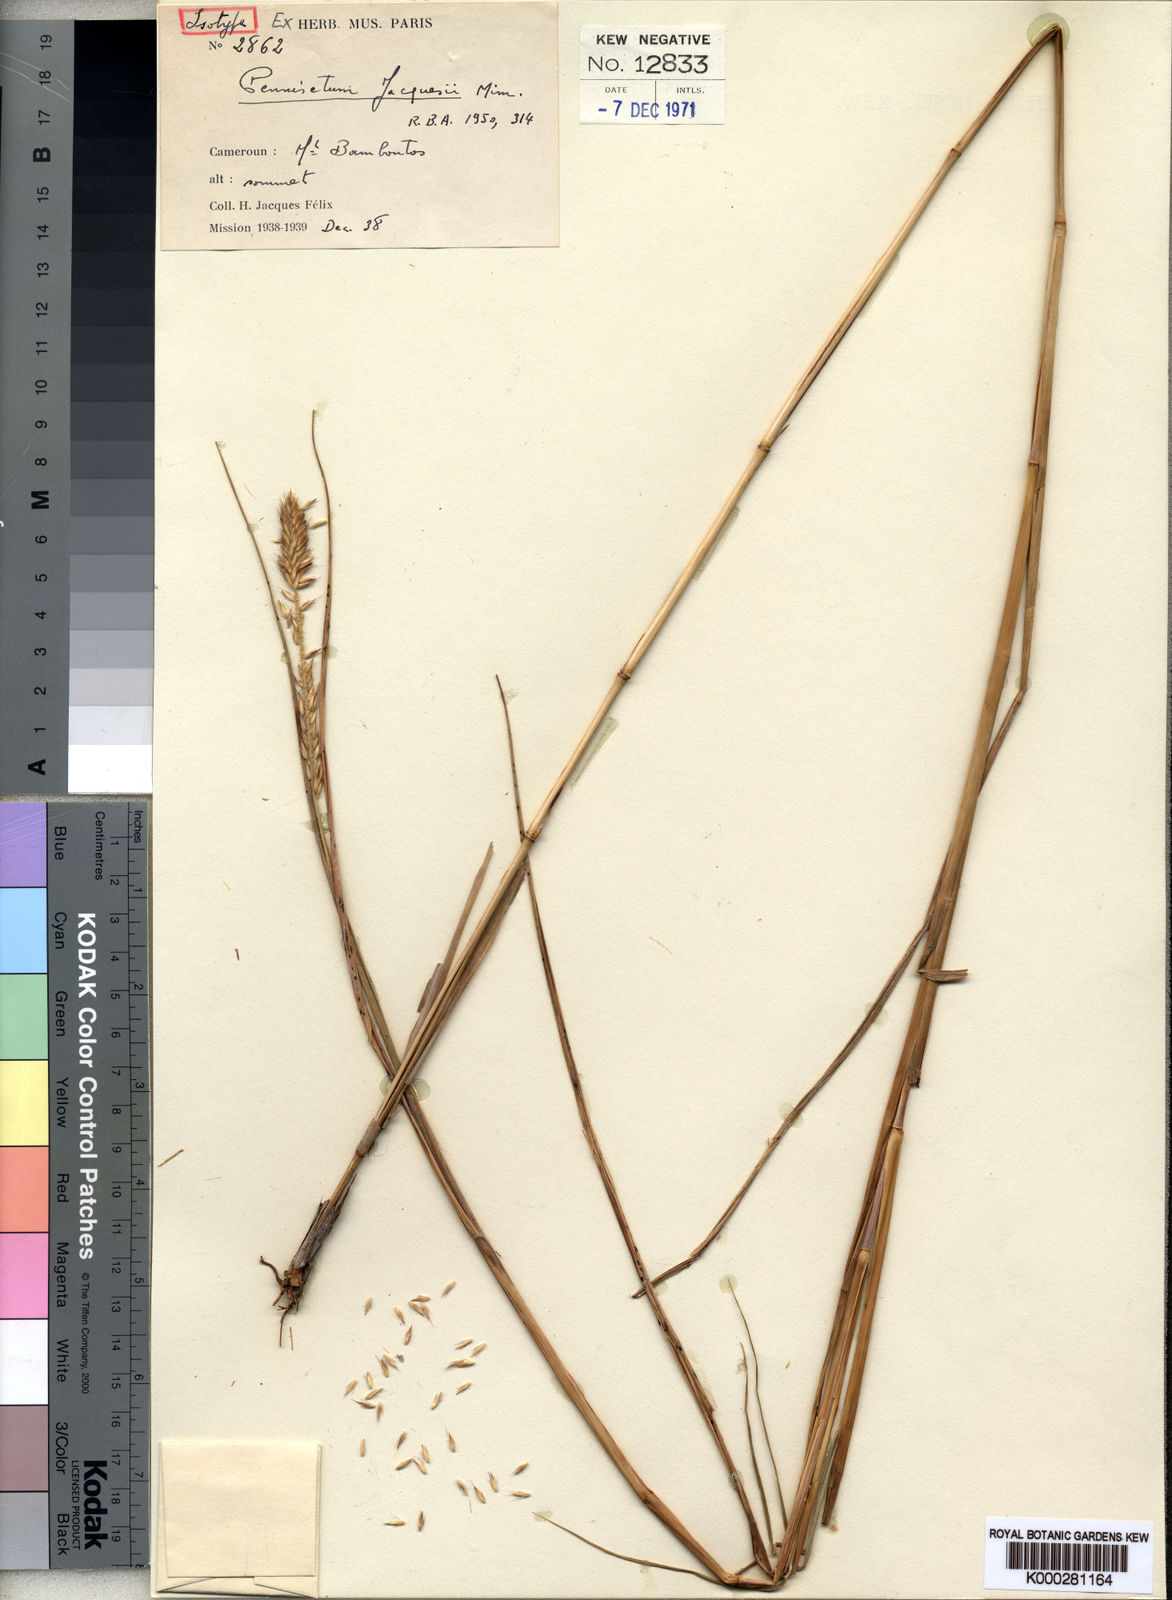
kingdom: Plantae
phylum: Tracheophyta
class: Liliopsida
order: Poales
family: Poaceae
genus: Cenchrus
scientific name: Cenchrus monostigma
